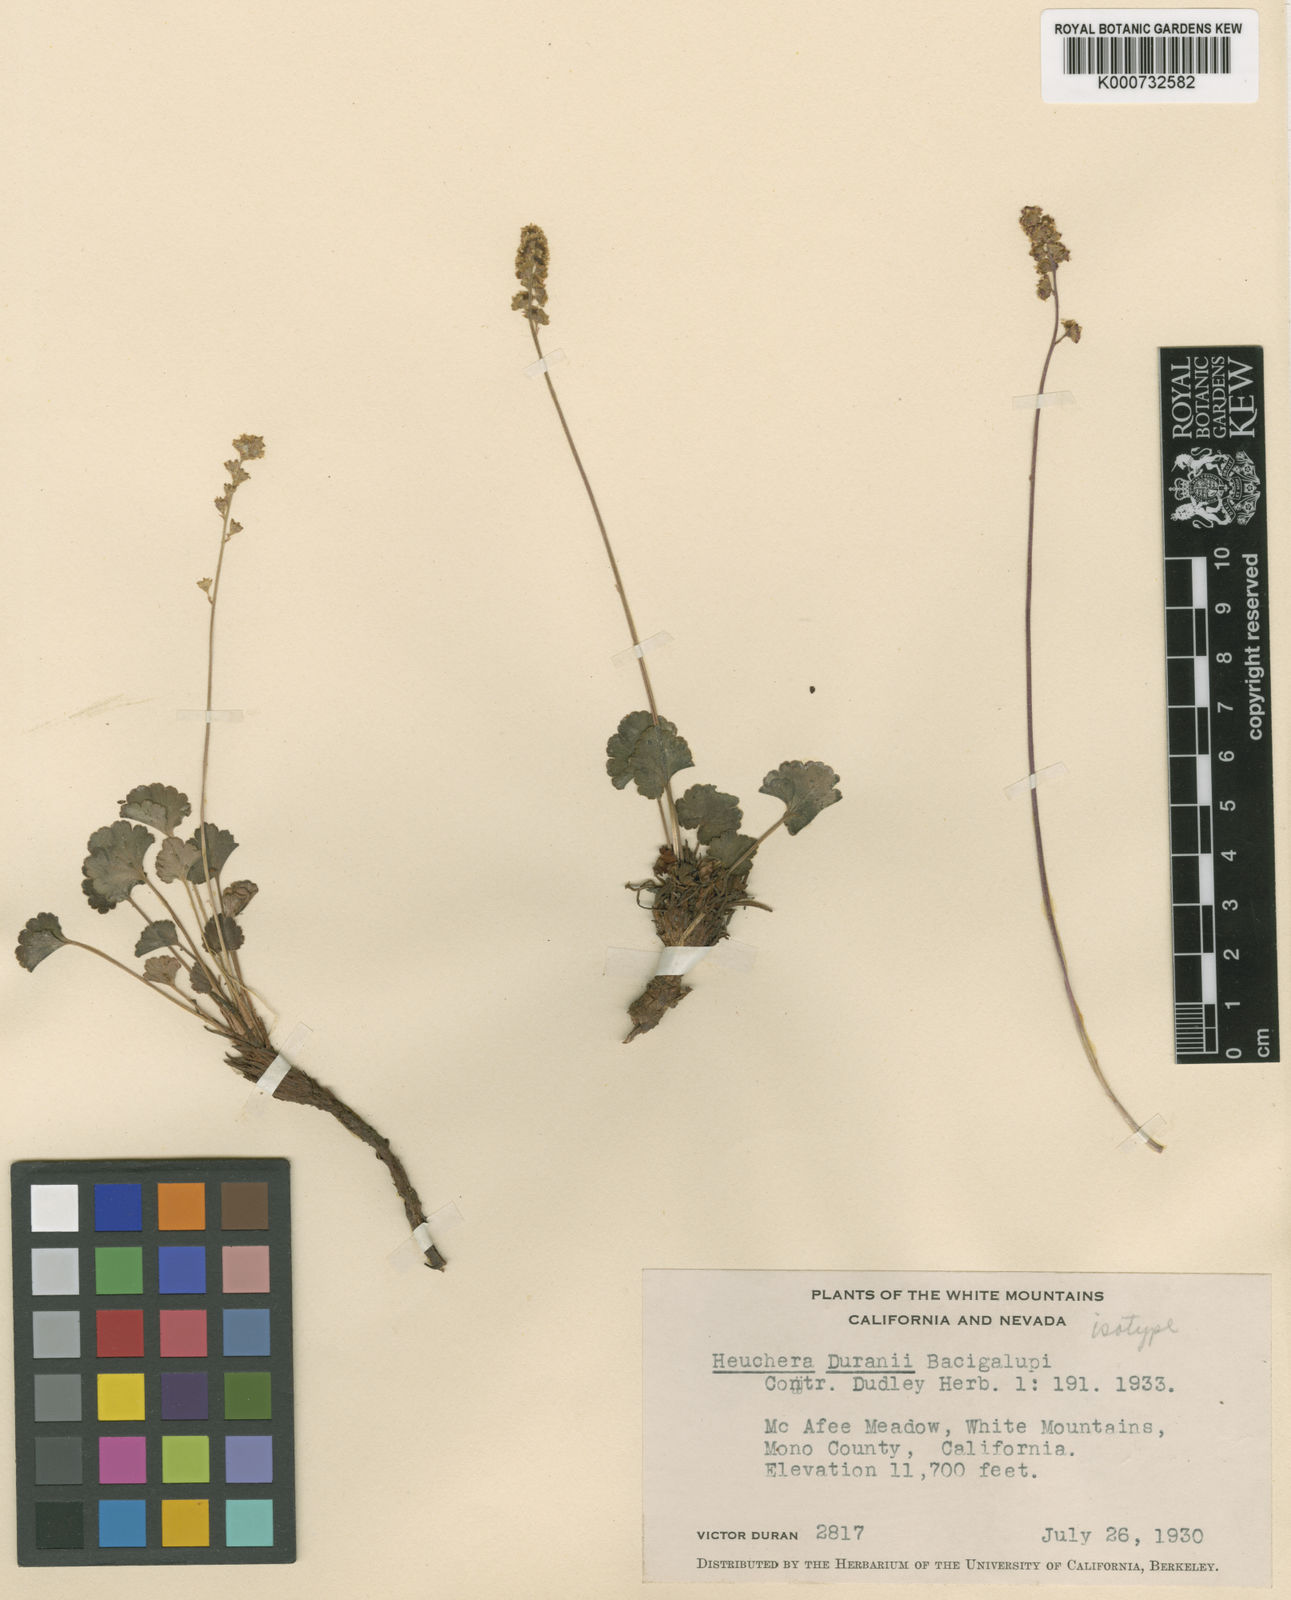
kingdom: Plantae
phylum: Tracheophyta
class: Magnoliopsida
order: Saxifragales
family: Saxifragaceae
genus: Heuchera
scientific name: Heuchera duranii
